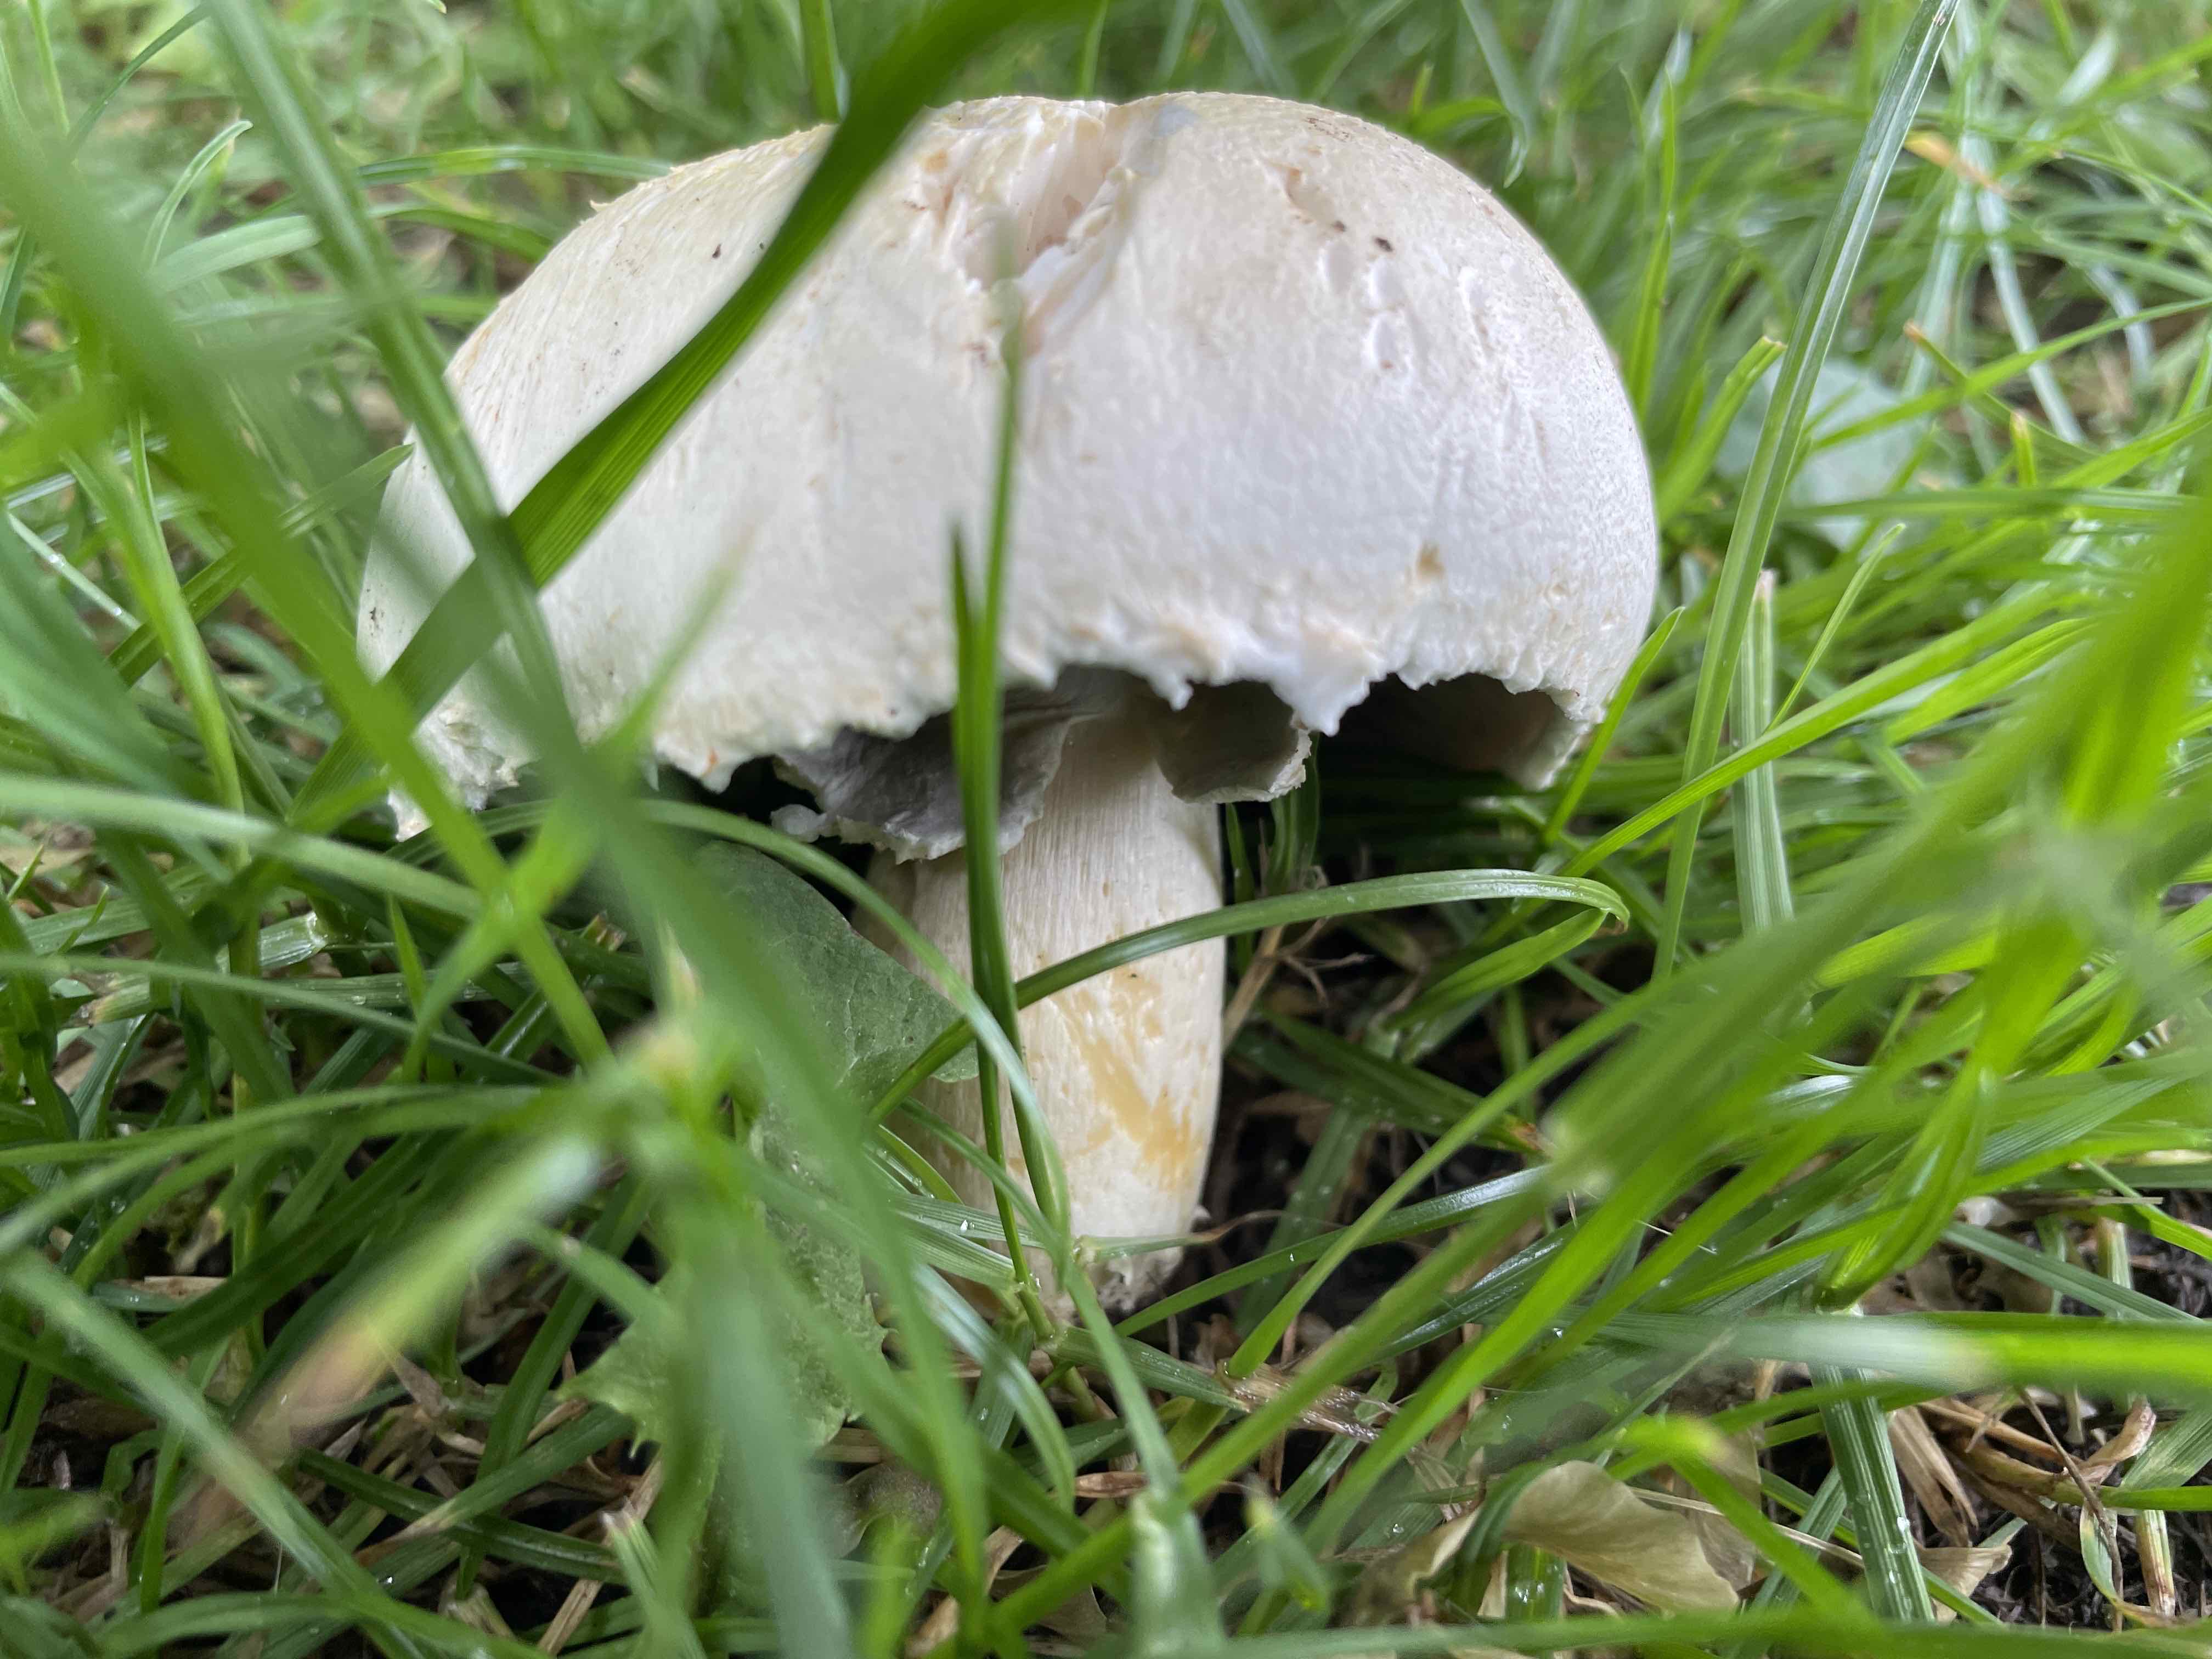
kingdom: Fungi
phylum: Basidiomycota
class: Agaricomycetes
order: Agaricales
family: Agaricaceae
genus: Agaricus
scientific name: Agaricus
